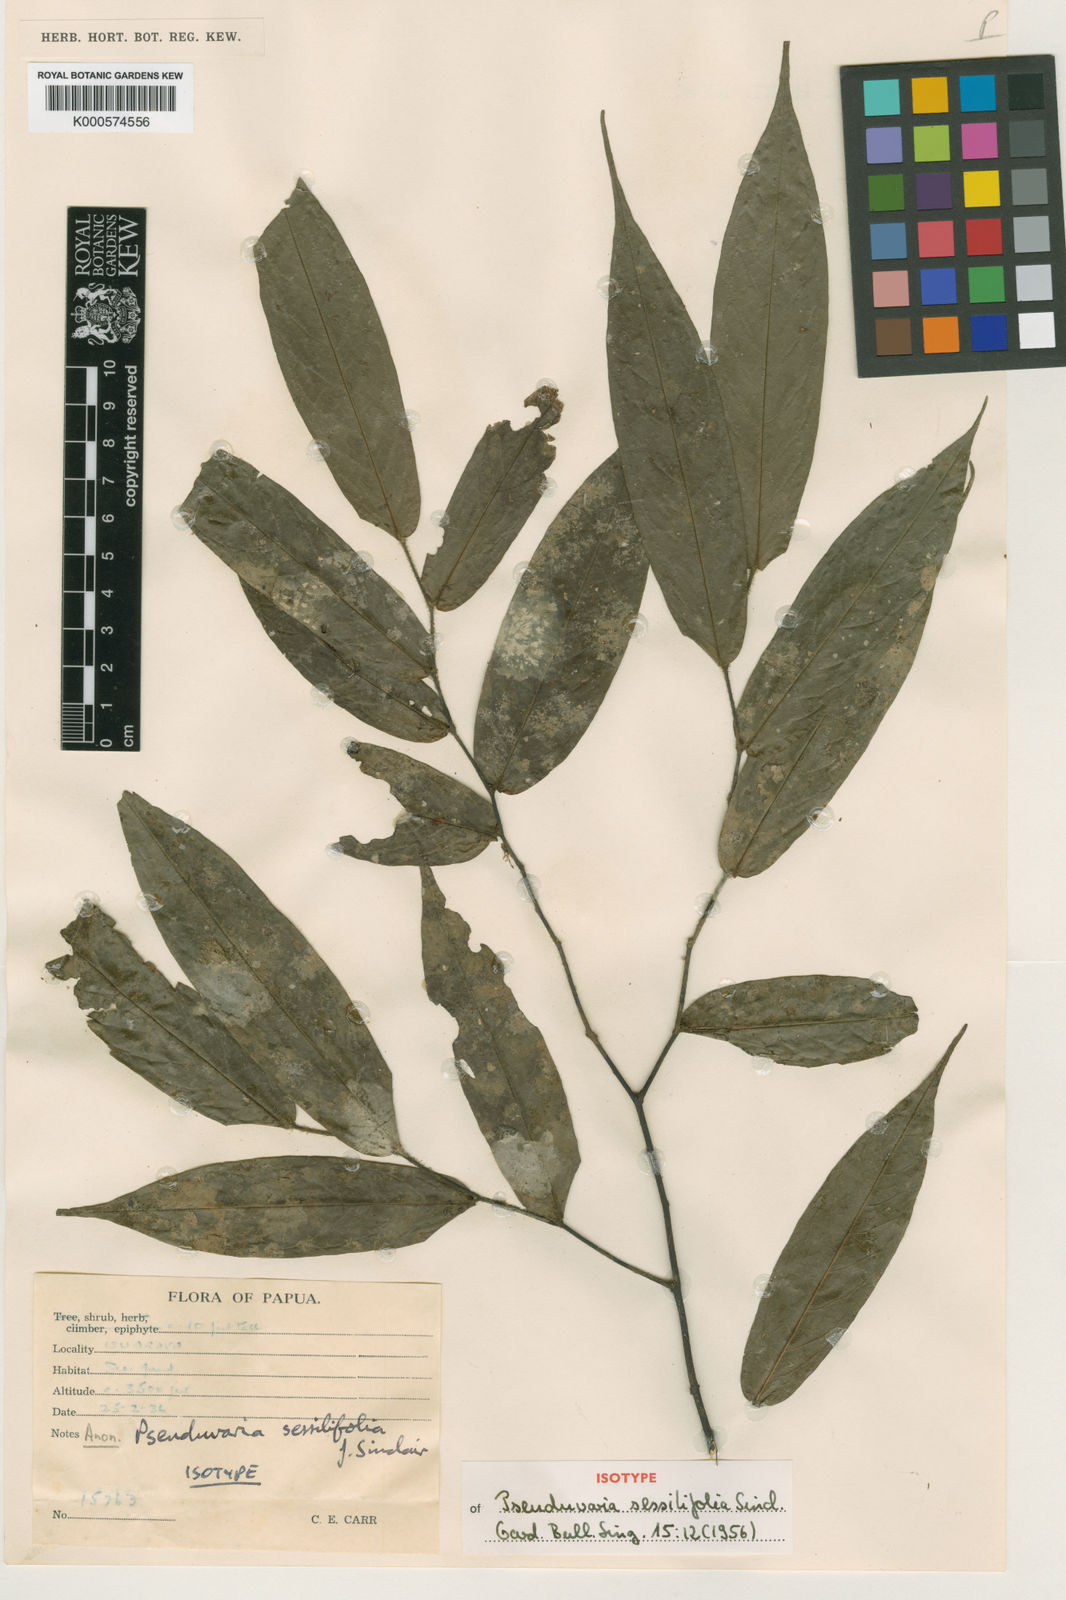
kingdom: Plantae
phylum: Tracheophyta
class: Magnoliopsida
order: Magnoliales
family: Annonaceae
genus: Pseuduvaria
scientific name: Pseuduvaria
